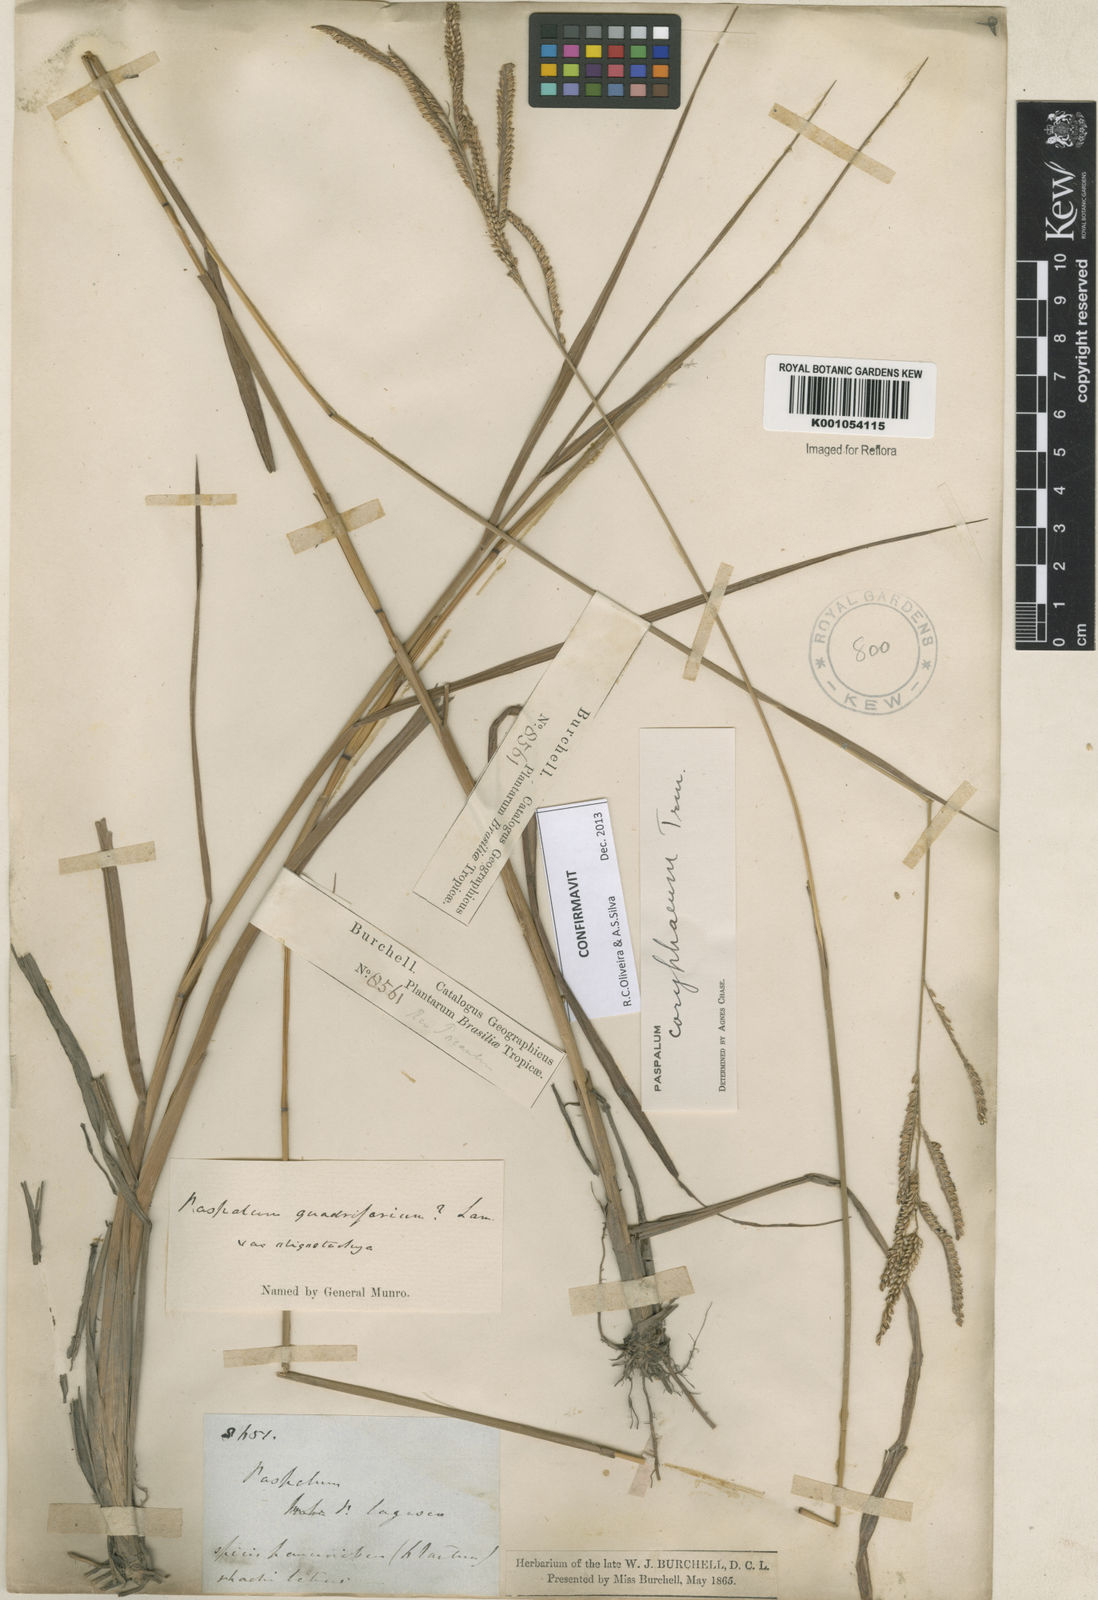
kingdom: Plantae
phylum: Tracheophyta
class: Liliopsida
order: Poales
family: Poaceae
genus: Paspalum
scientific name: Paspalum coryphaeum
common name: Emperor crowngrass
